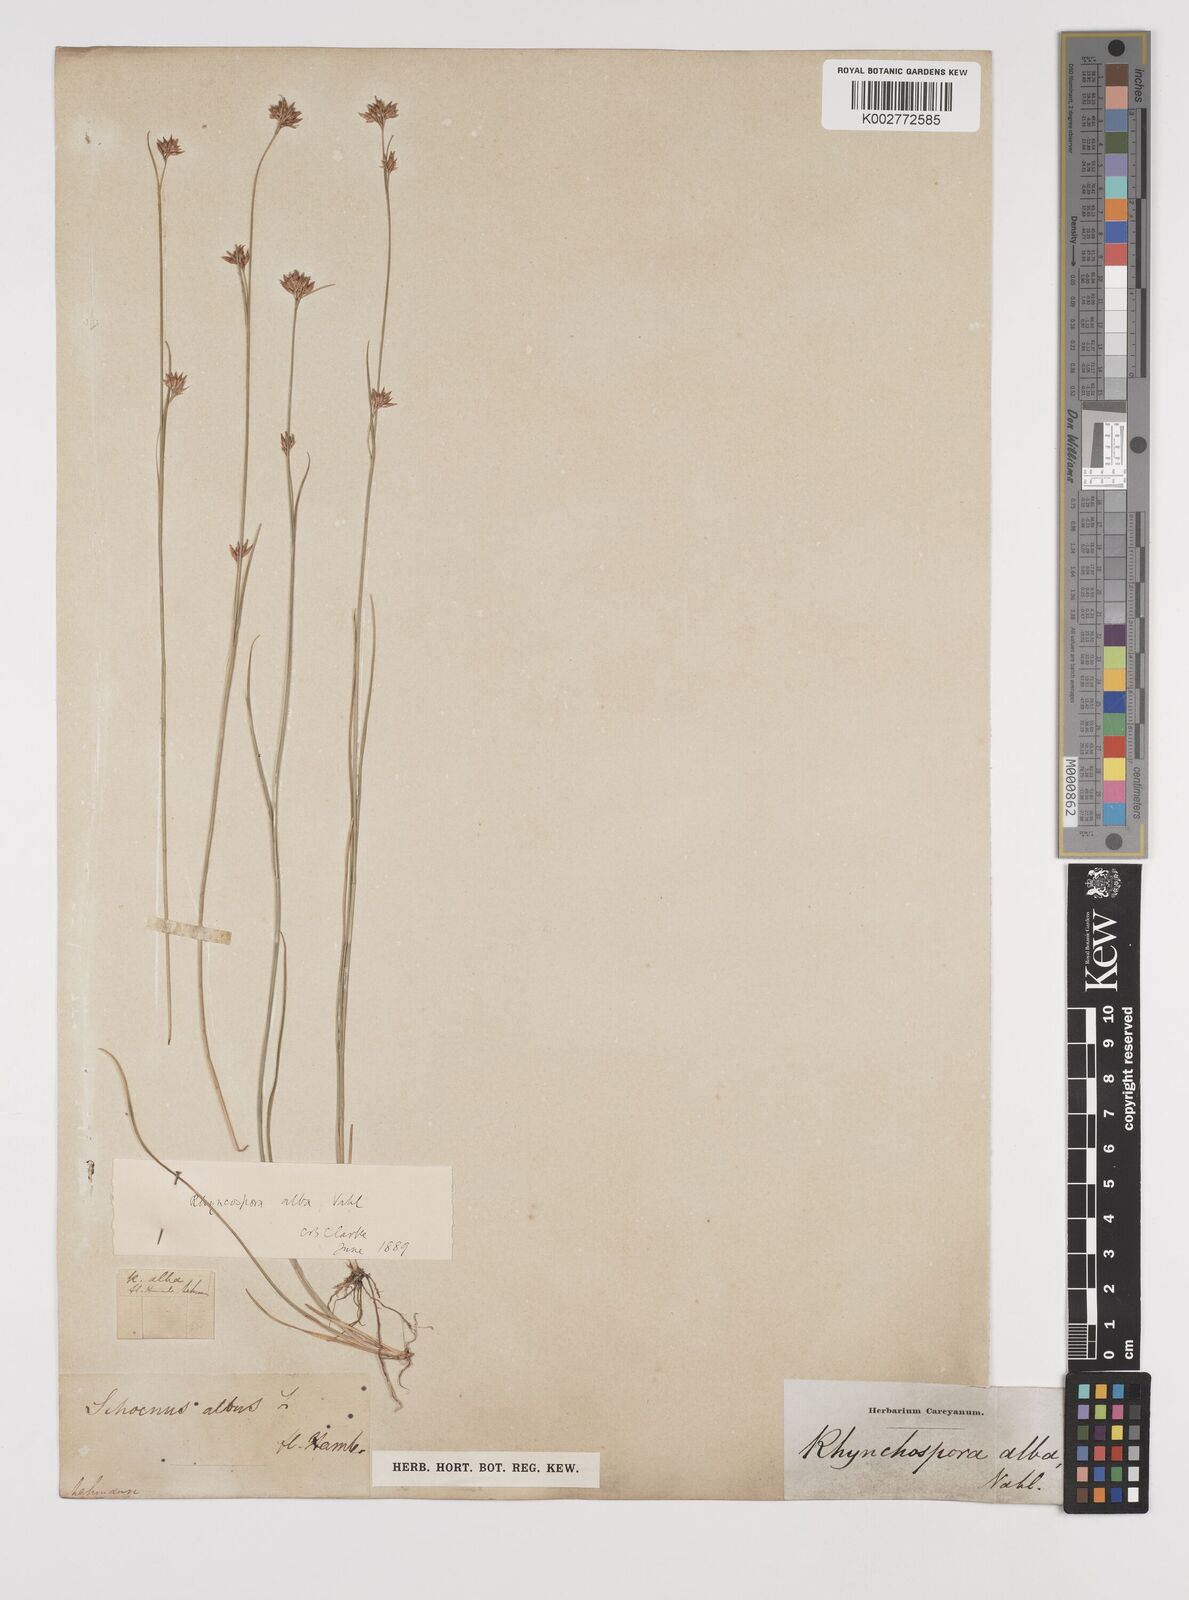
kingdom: Plantae
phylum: Tracheophyta
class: Liliopsida
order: Poales
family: Cyperaceae
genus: Rhynchospora
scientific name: Rhynchospora alba
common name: White beak-sedge
